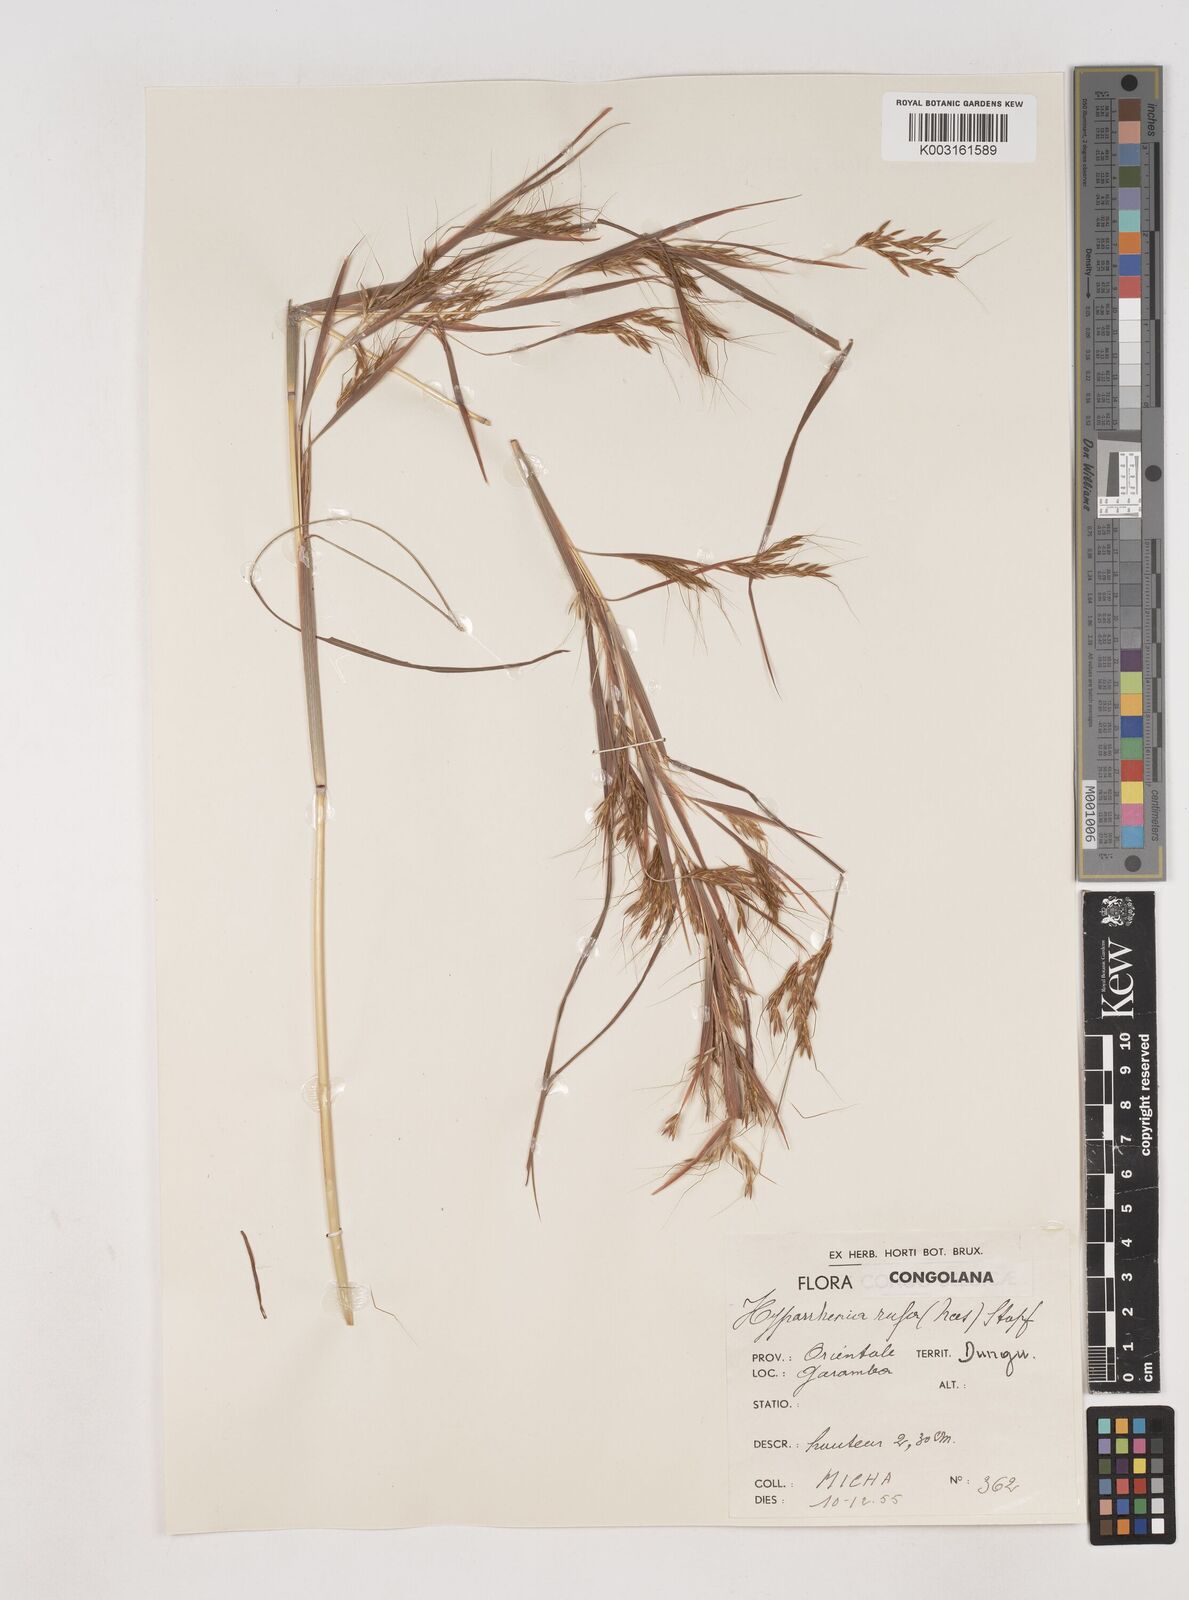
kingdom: Plantae
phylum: Tracheophyta
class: Liliopsida
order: Poales
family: Poaceae
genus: Hyparrhenia
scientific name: Hyparrhenia rufa
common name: Jaraguagrass
